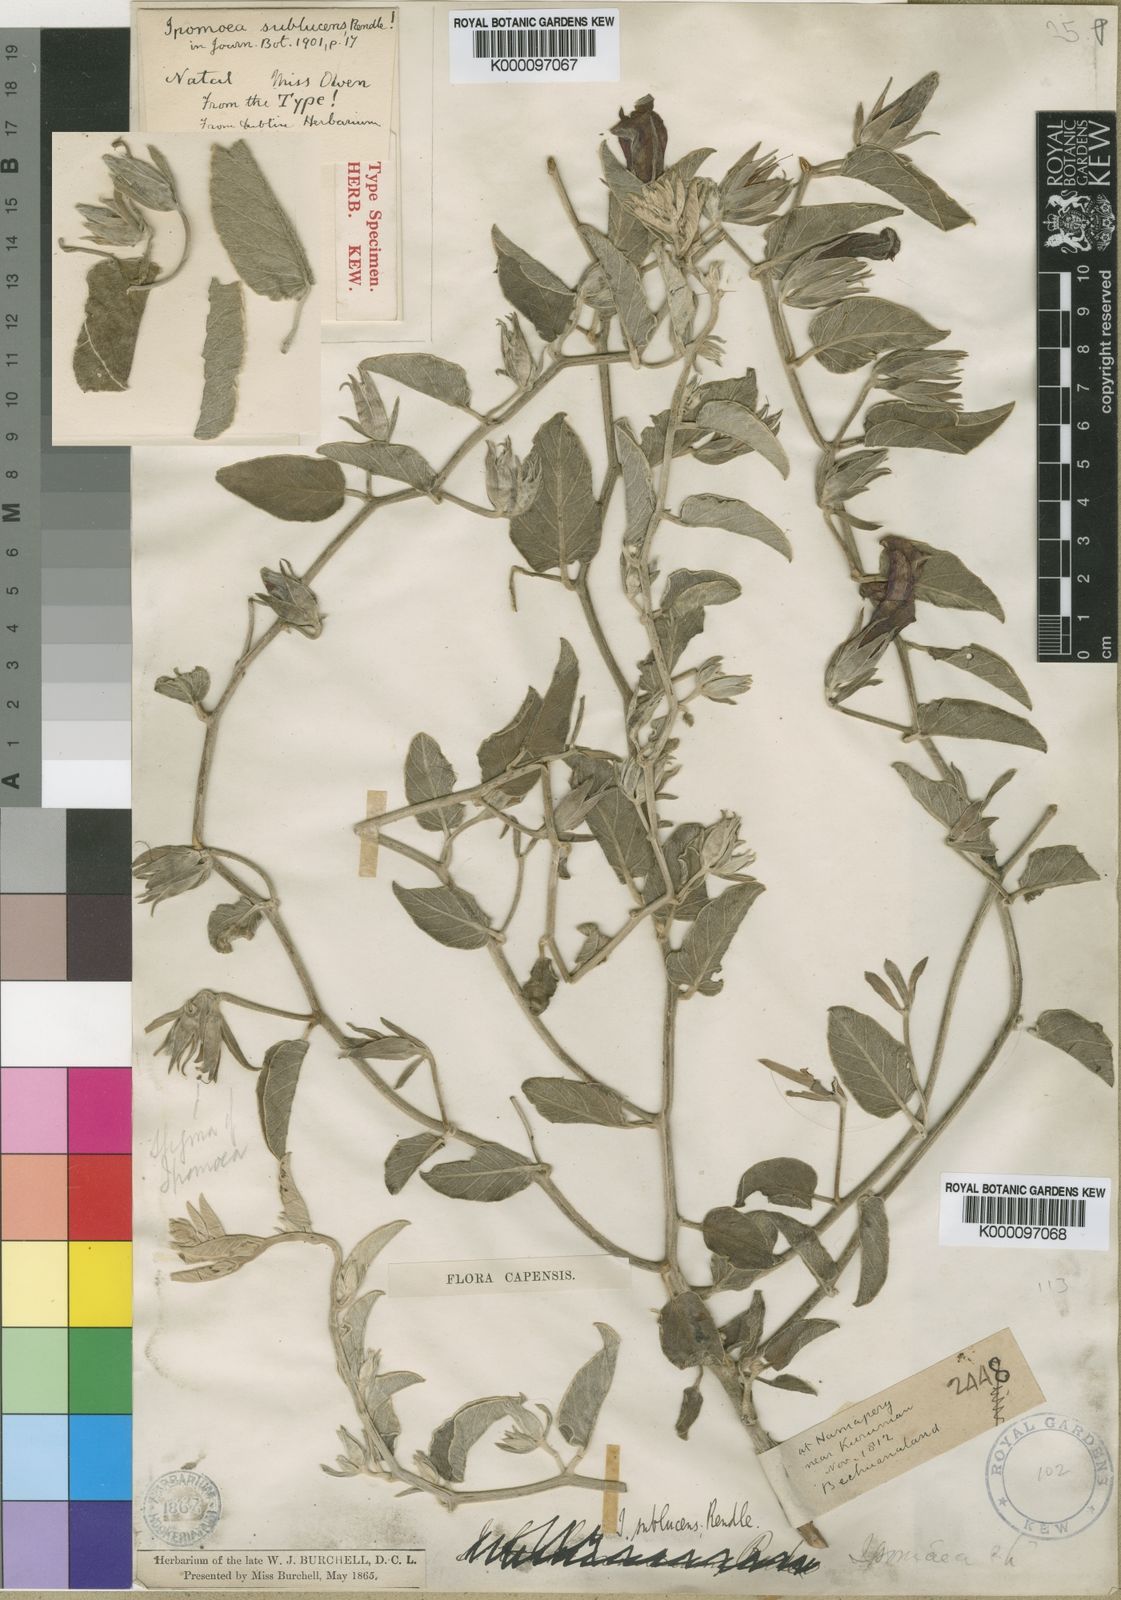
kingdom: Plantae
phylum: Tracheophyta
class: Magnoliopsida
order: Solanales
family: Convolvulaceae
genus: Ipomoea
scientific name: Ipomoea suffruticosa
